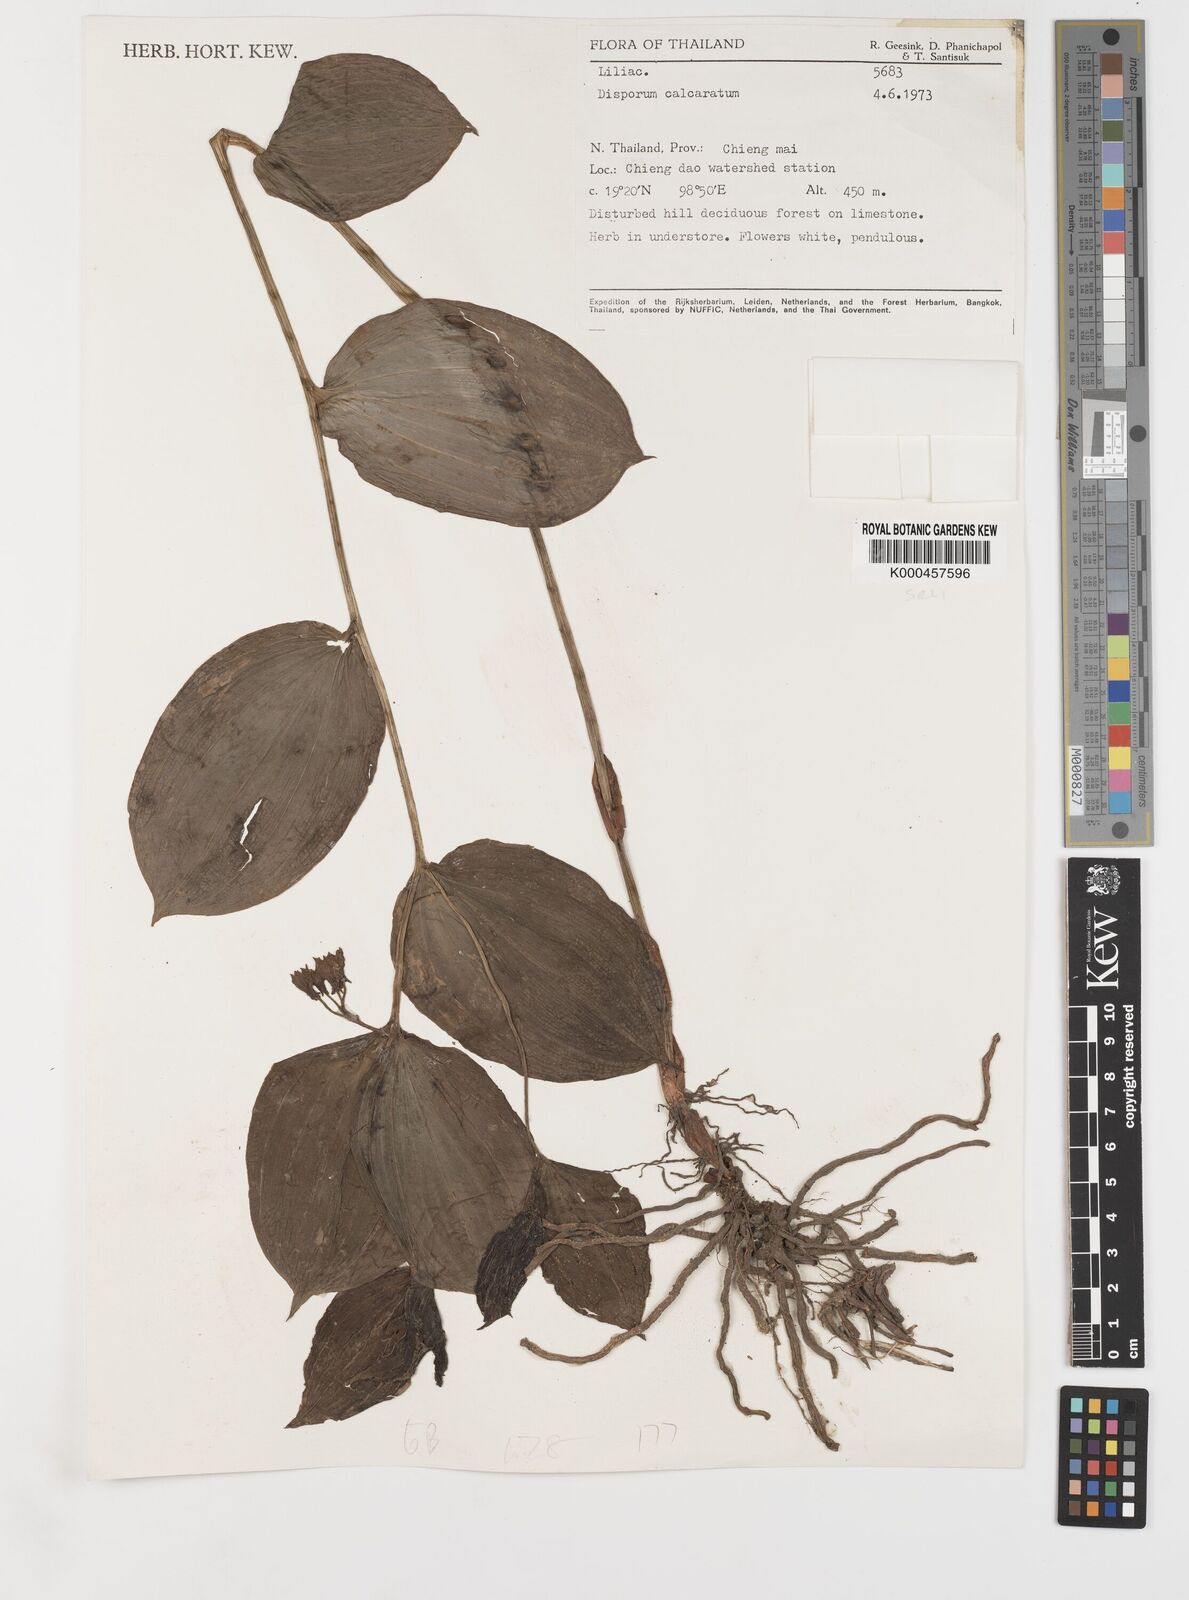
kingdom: Plantae
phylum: Tracheophyta
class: Liliopsida
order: Liliales
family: Colchicaceae
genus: Disporum
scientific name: Disporum calcaratum
